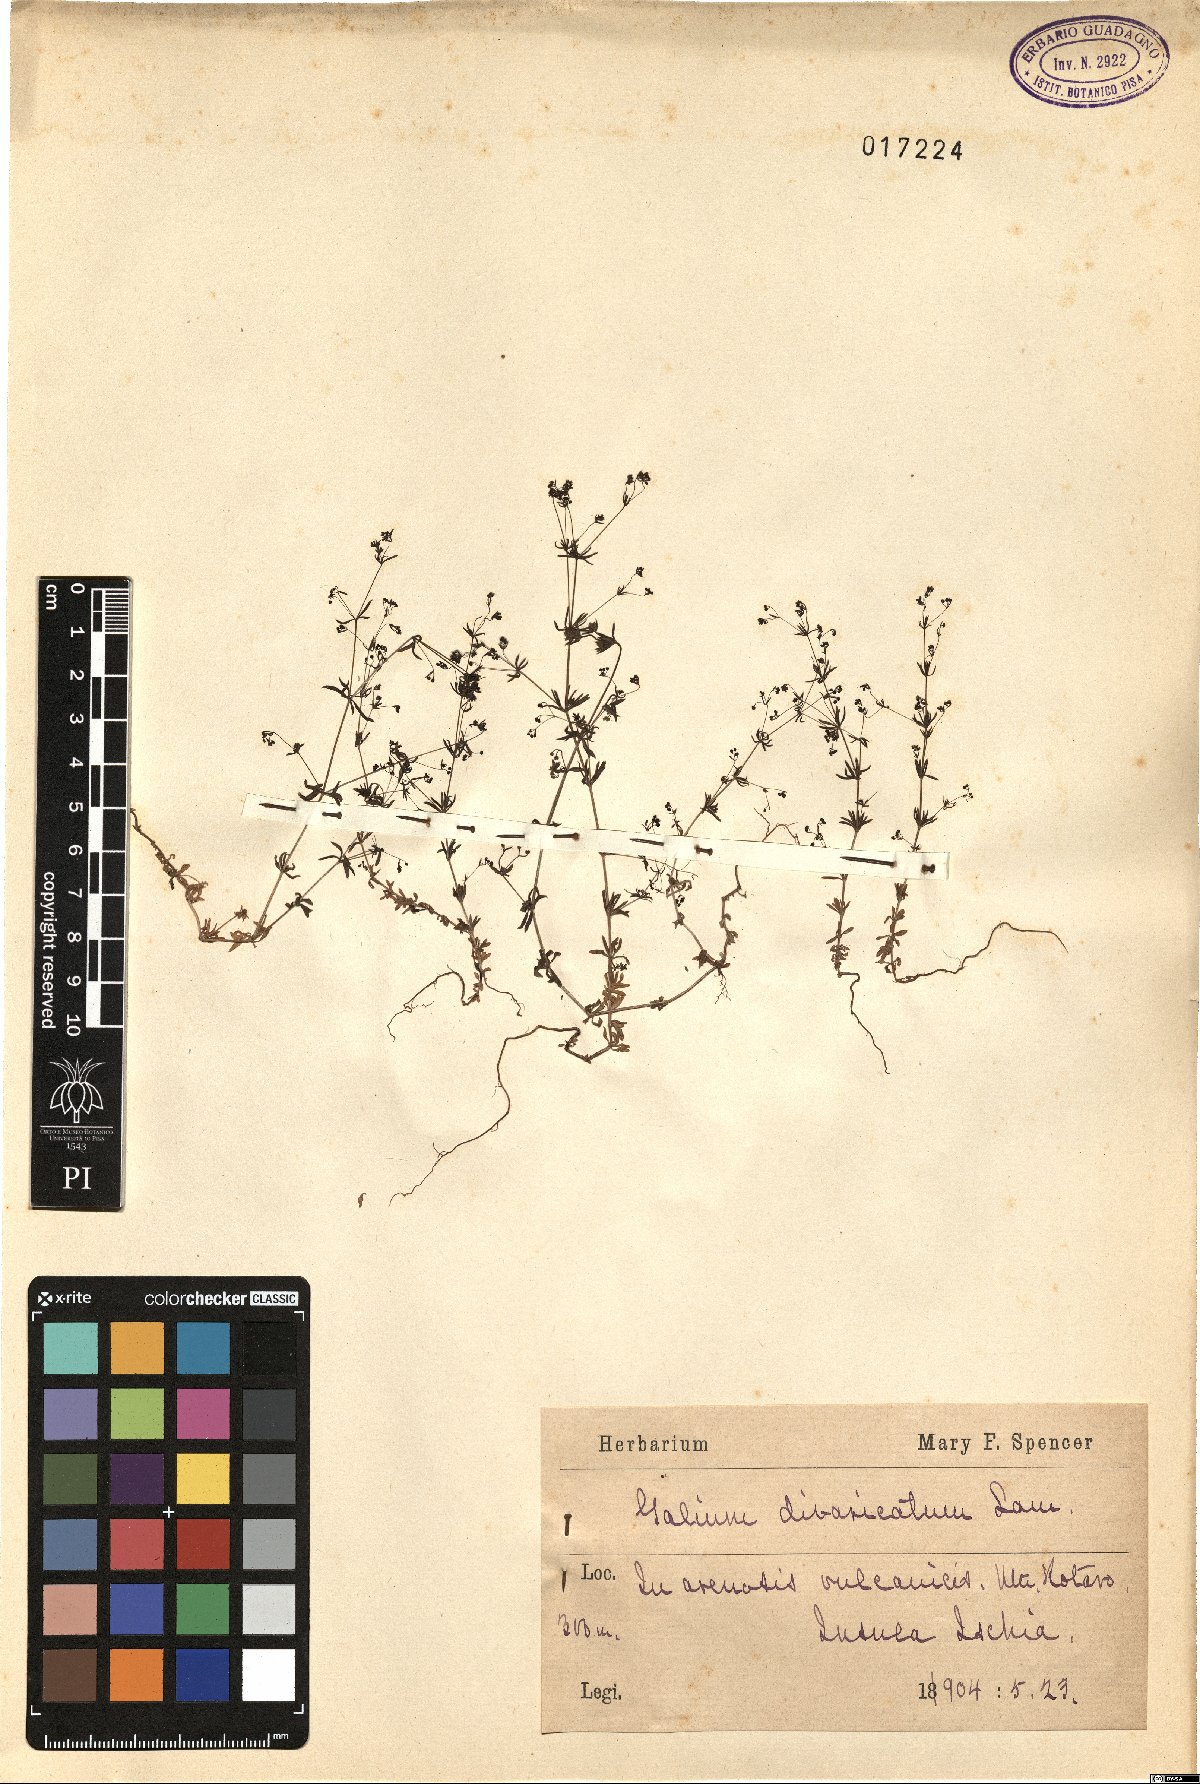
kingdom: Plantae
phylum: Tracheophyta
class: Magnoliopsida
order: Gentianales
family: Rubiaceae
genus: Galium
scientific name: Galium divaricatum
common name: Lamarck's bedstraw
